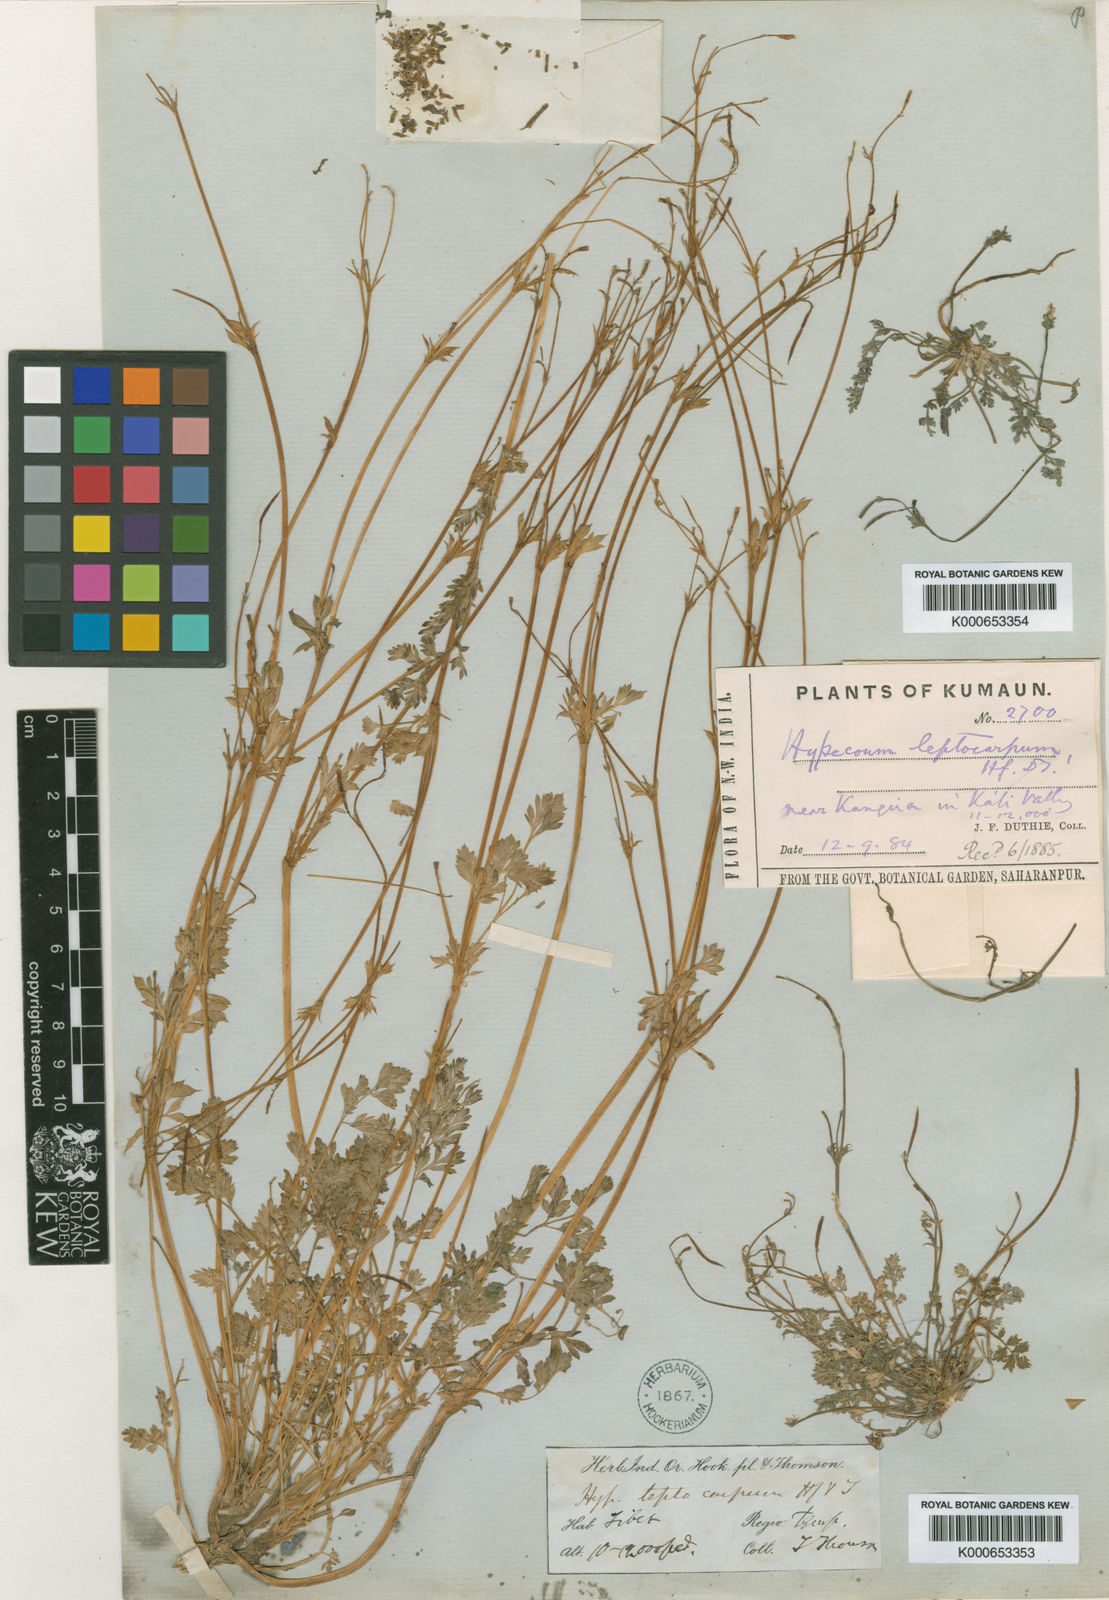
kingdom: Plantae
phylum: Tracheophyta
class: Magnoliopsida
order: Ranunculales
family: Papaveraceae
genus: Hypecoum
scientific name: Hypecoum leptocarpum
